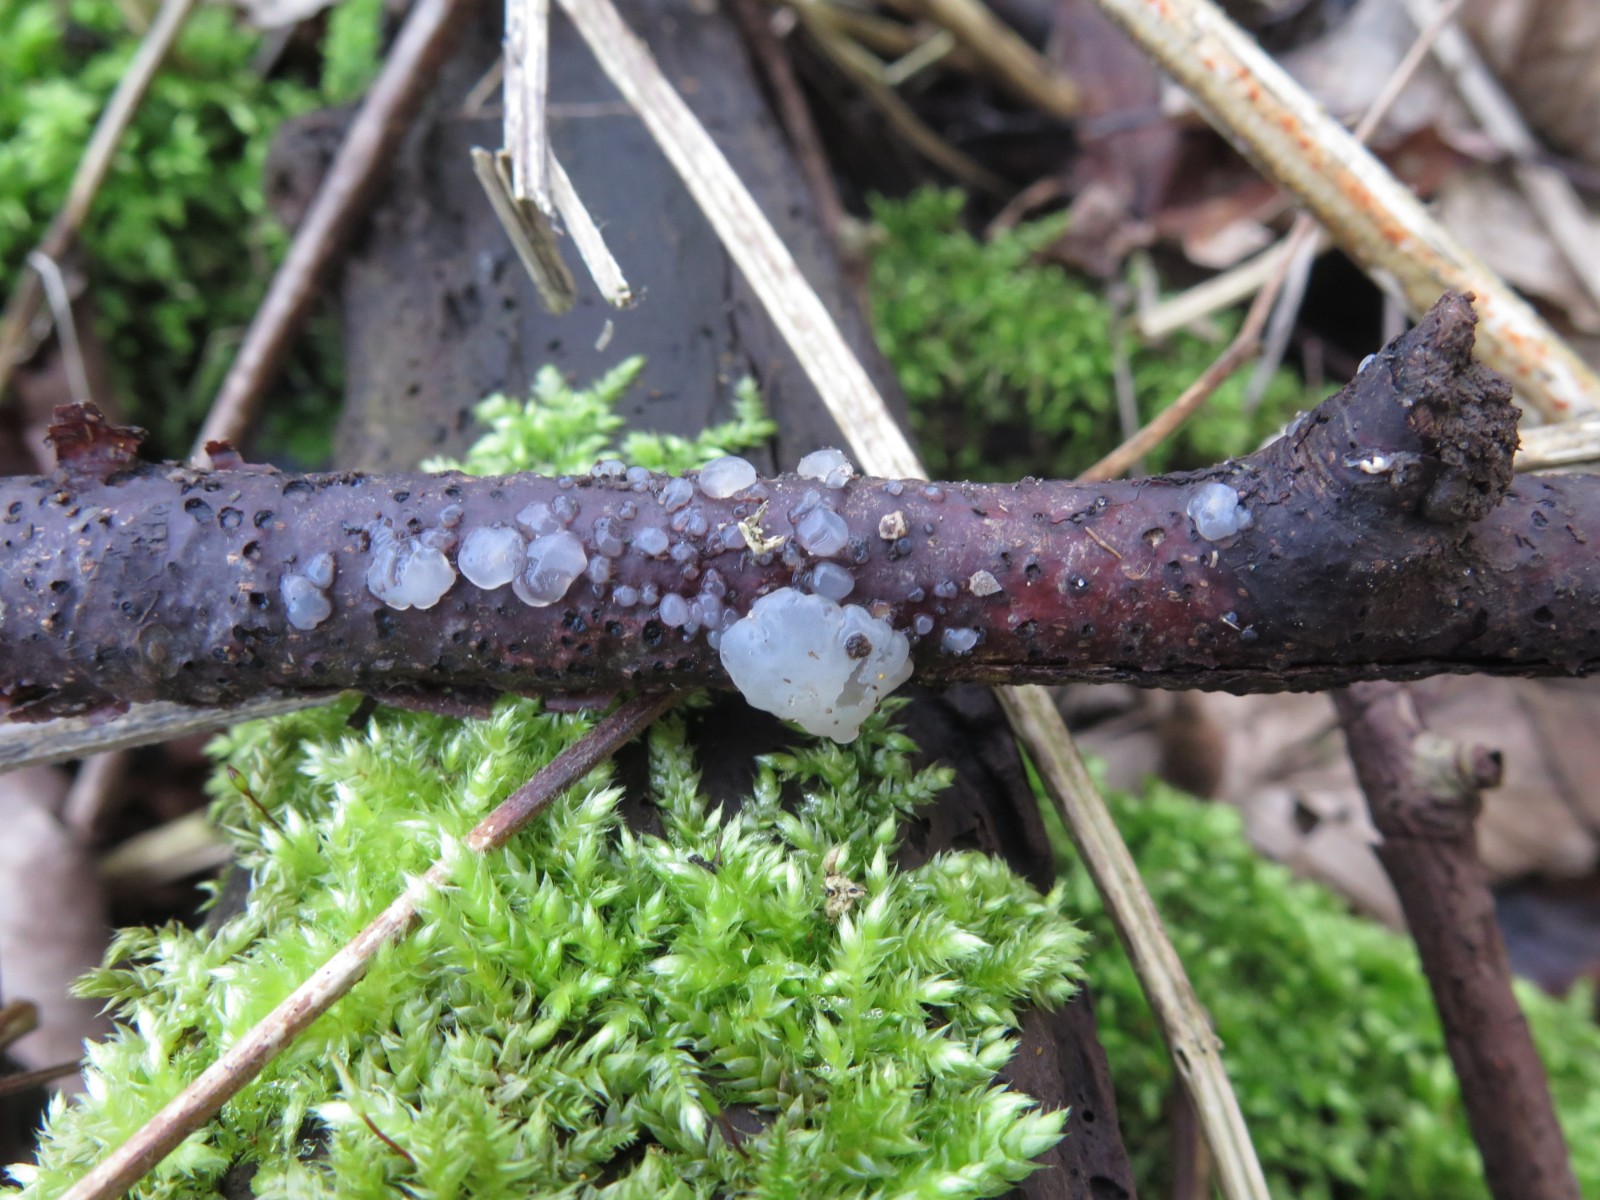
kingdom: Fungi
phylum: Basidiomycota
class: Agaricomycetes
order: Auriculariales
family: Hyaloriaceae
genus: Myxarium
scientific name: Myxarium nucleatum
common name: klar bævretop
